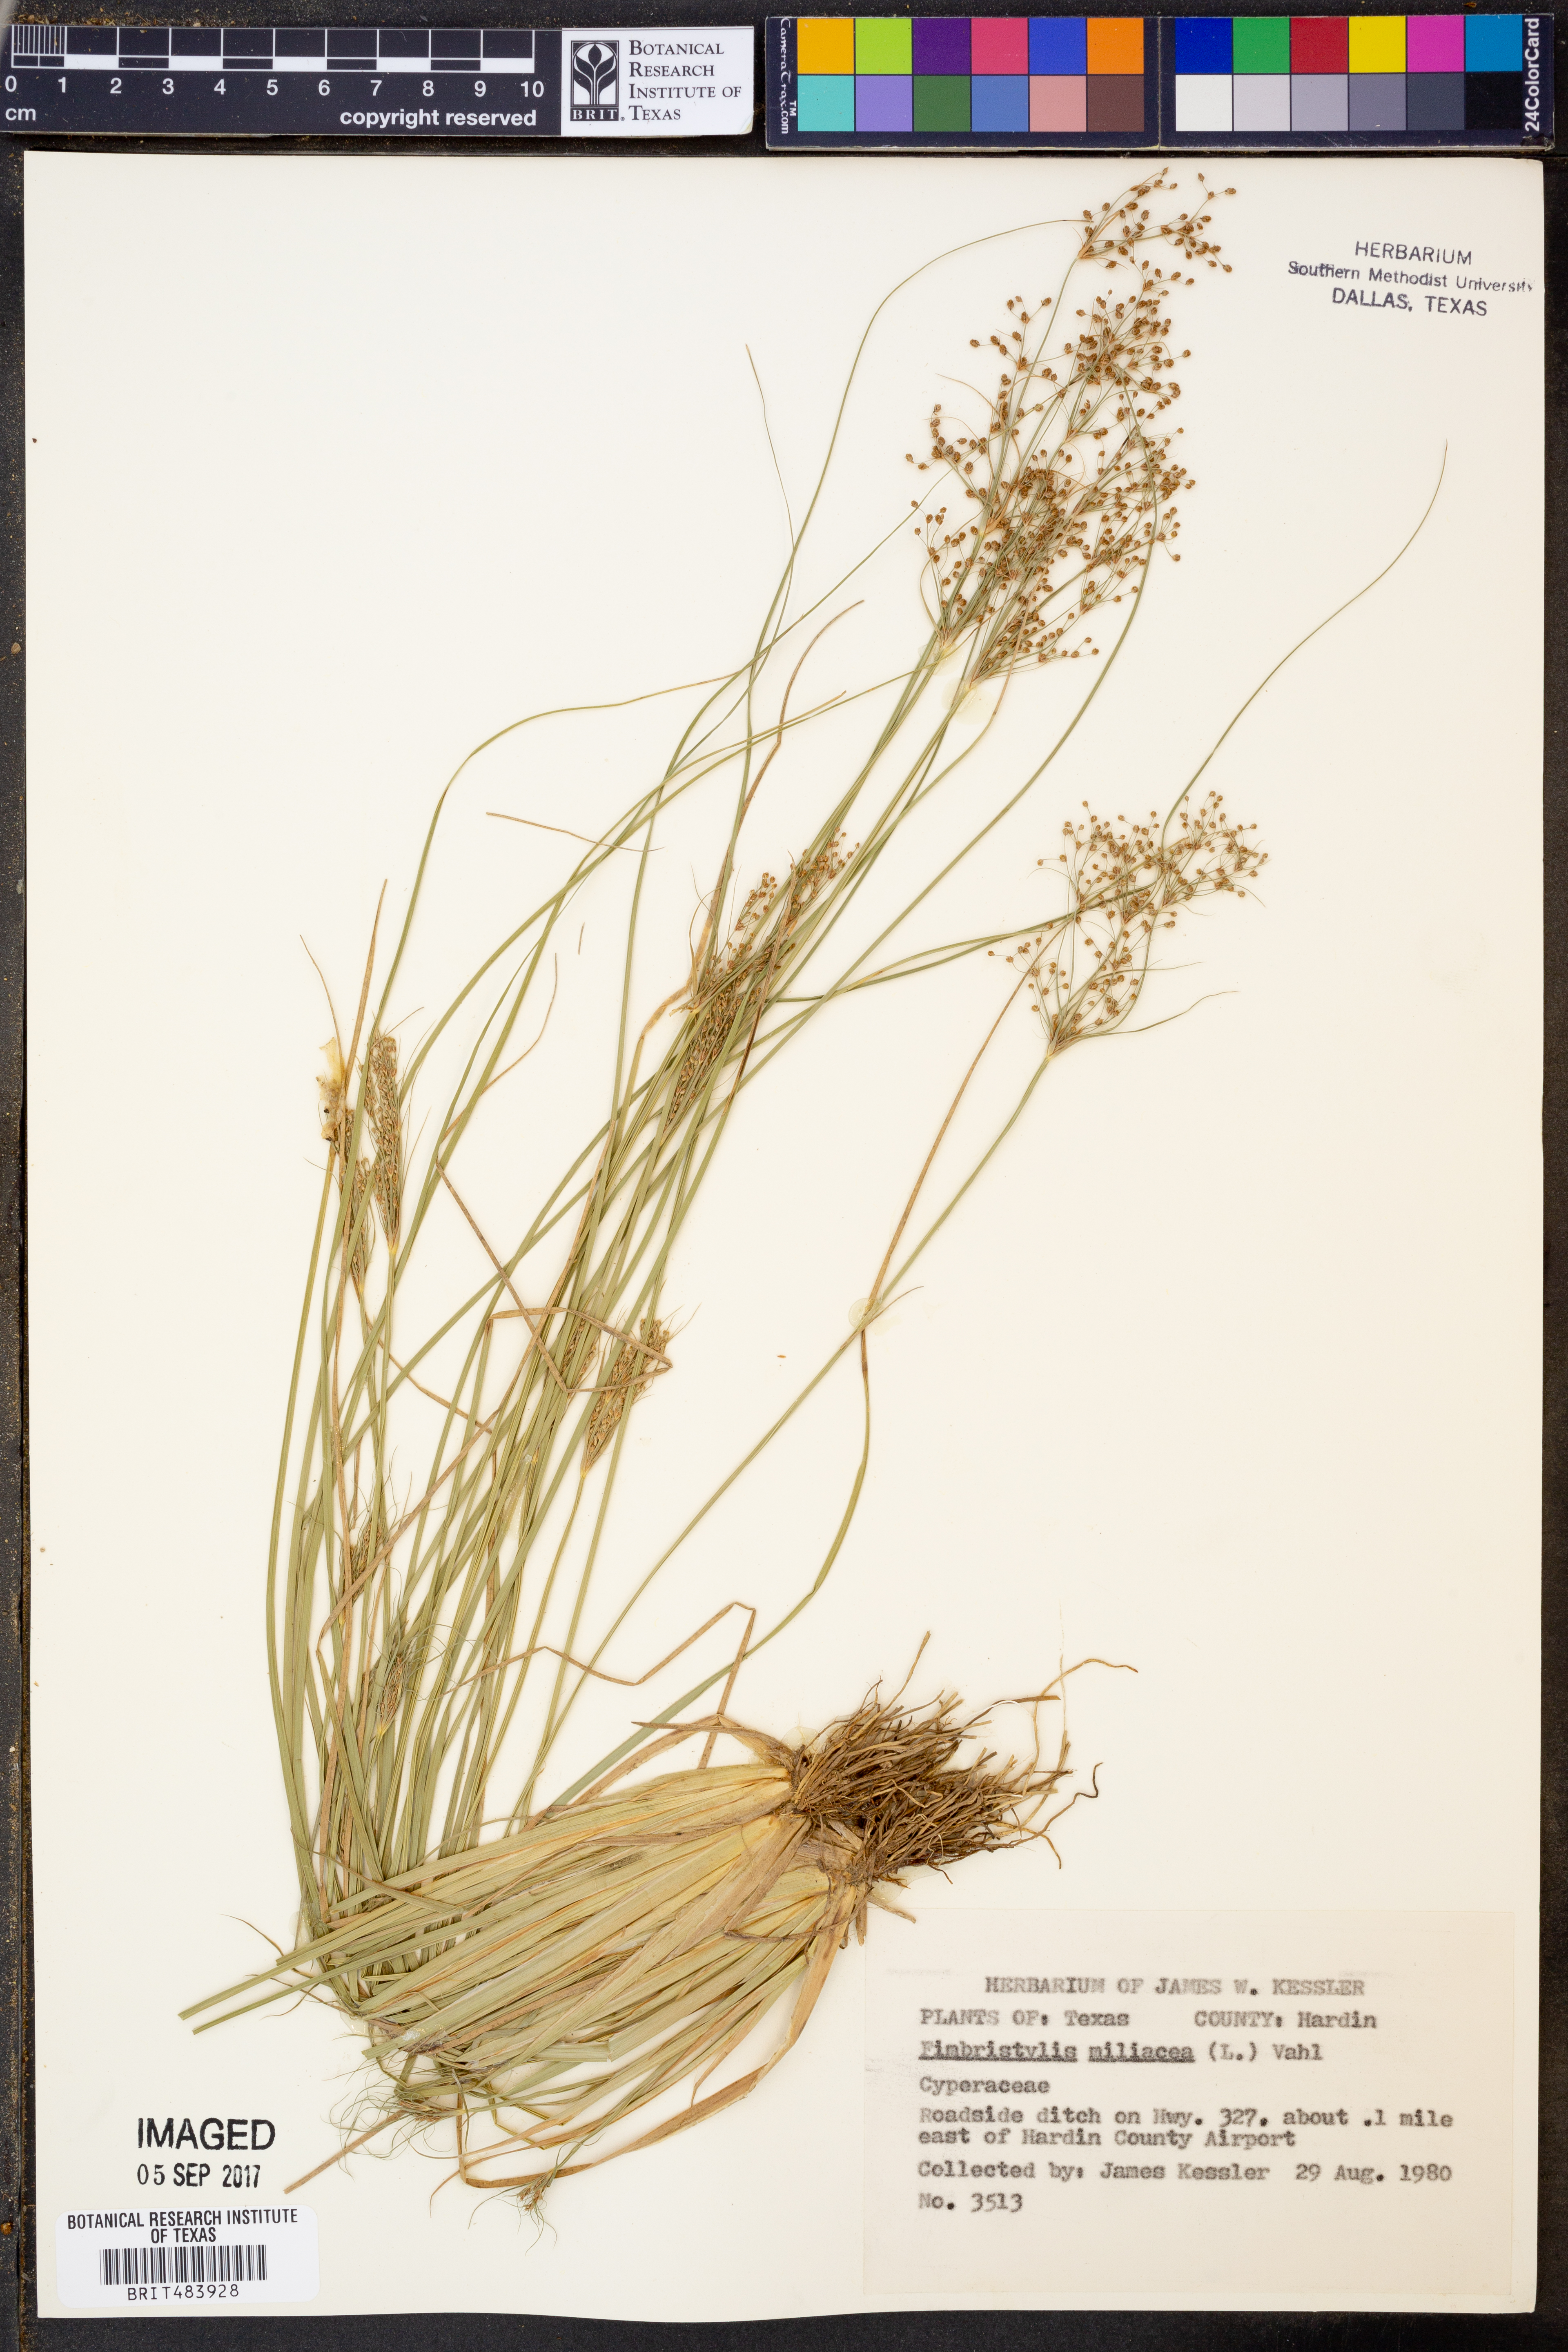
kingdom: Plantae
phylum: Tracheophyta
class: Liliopsida
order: Poales
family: Cyperaceae
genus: Fimbristylis
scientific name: Fimbristylis quinquangularis
